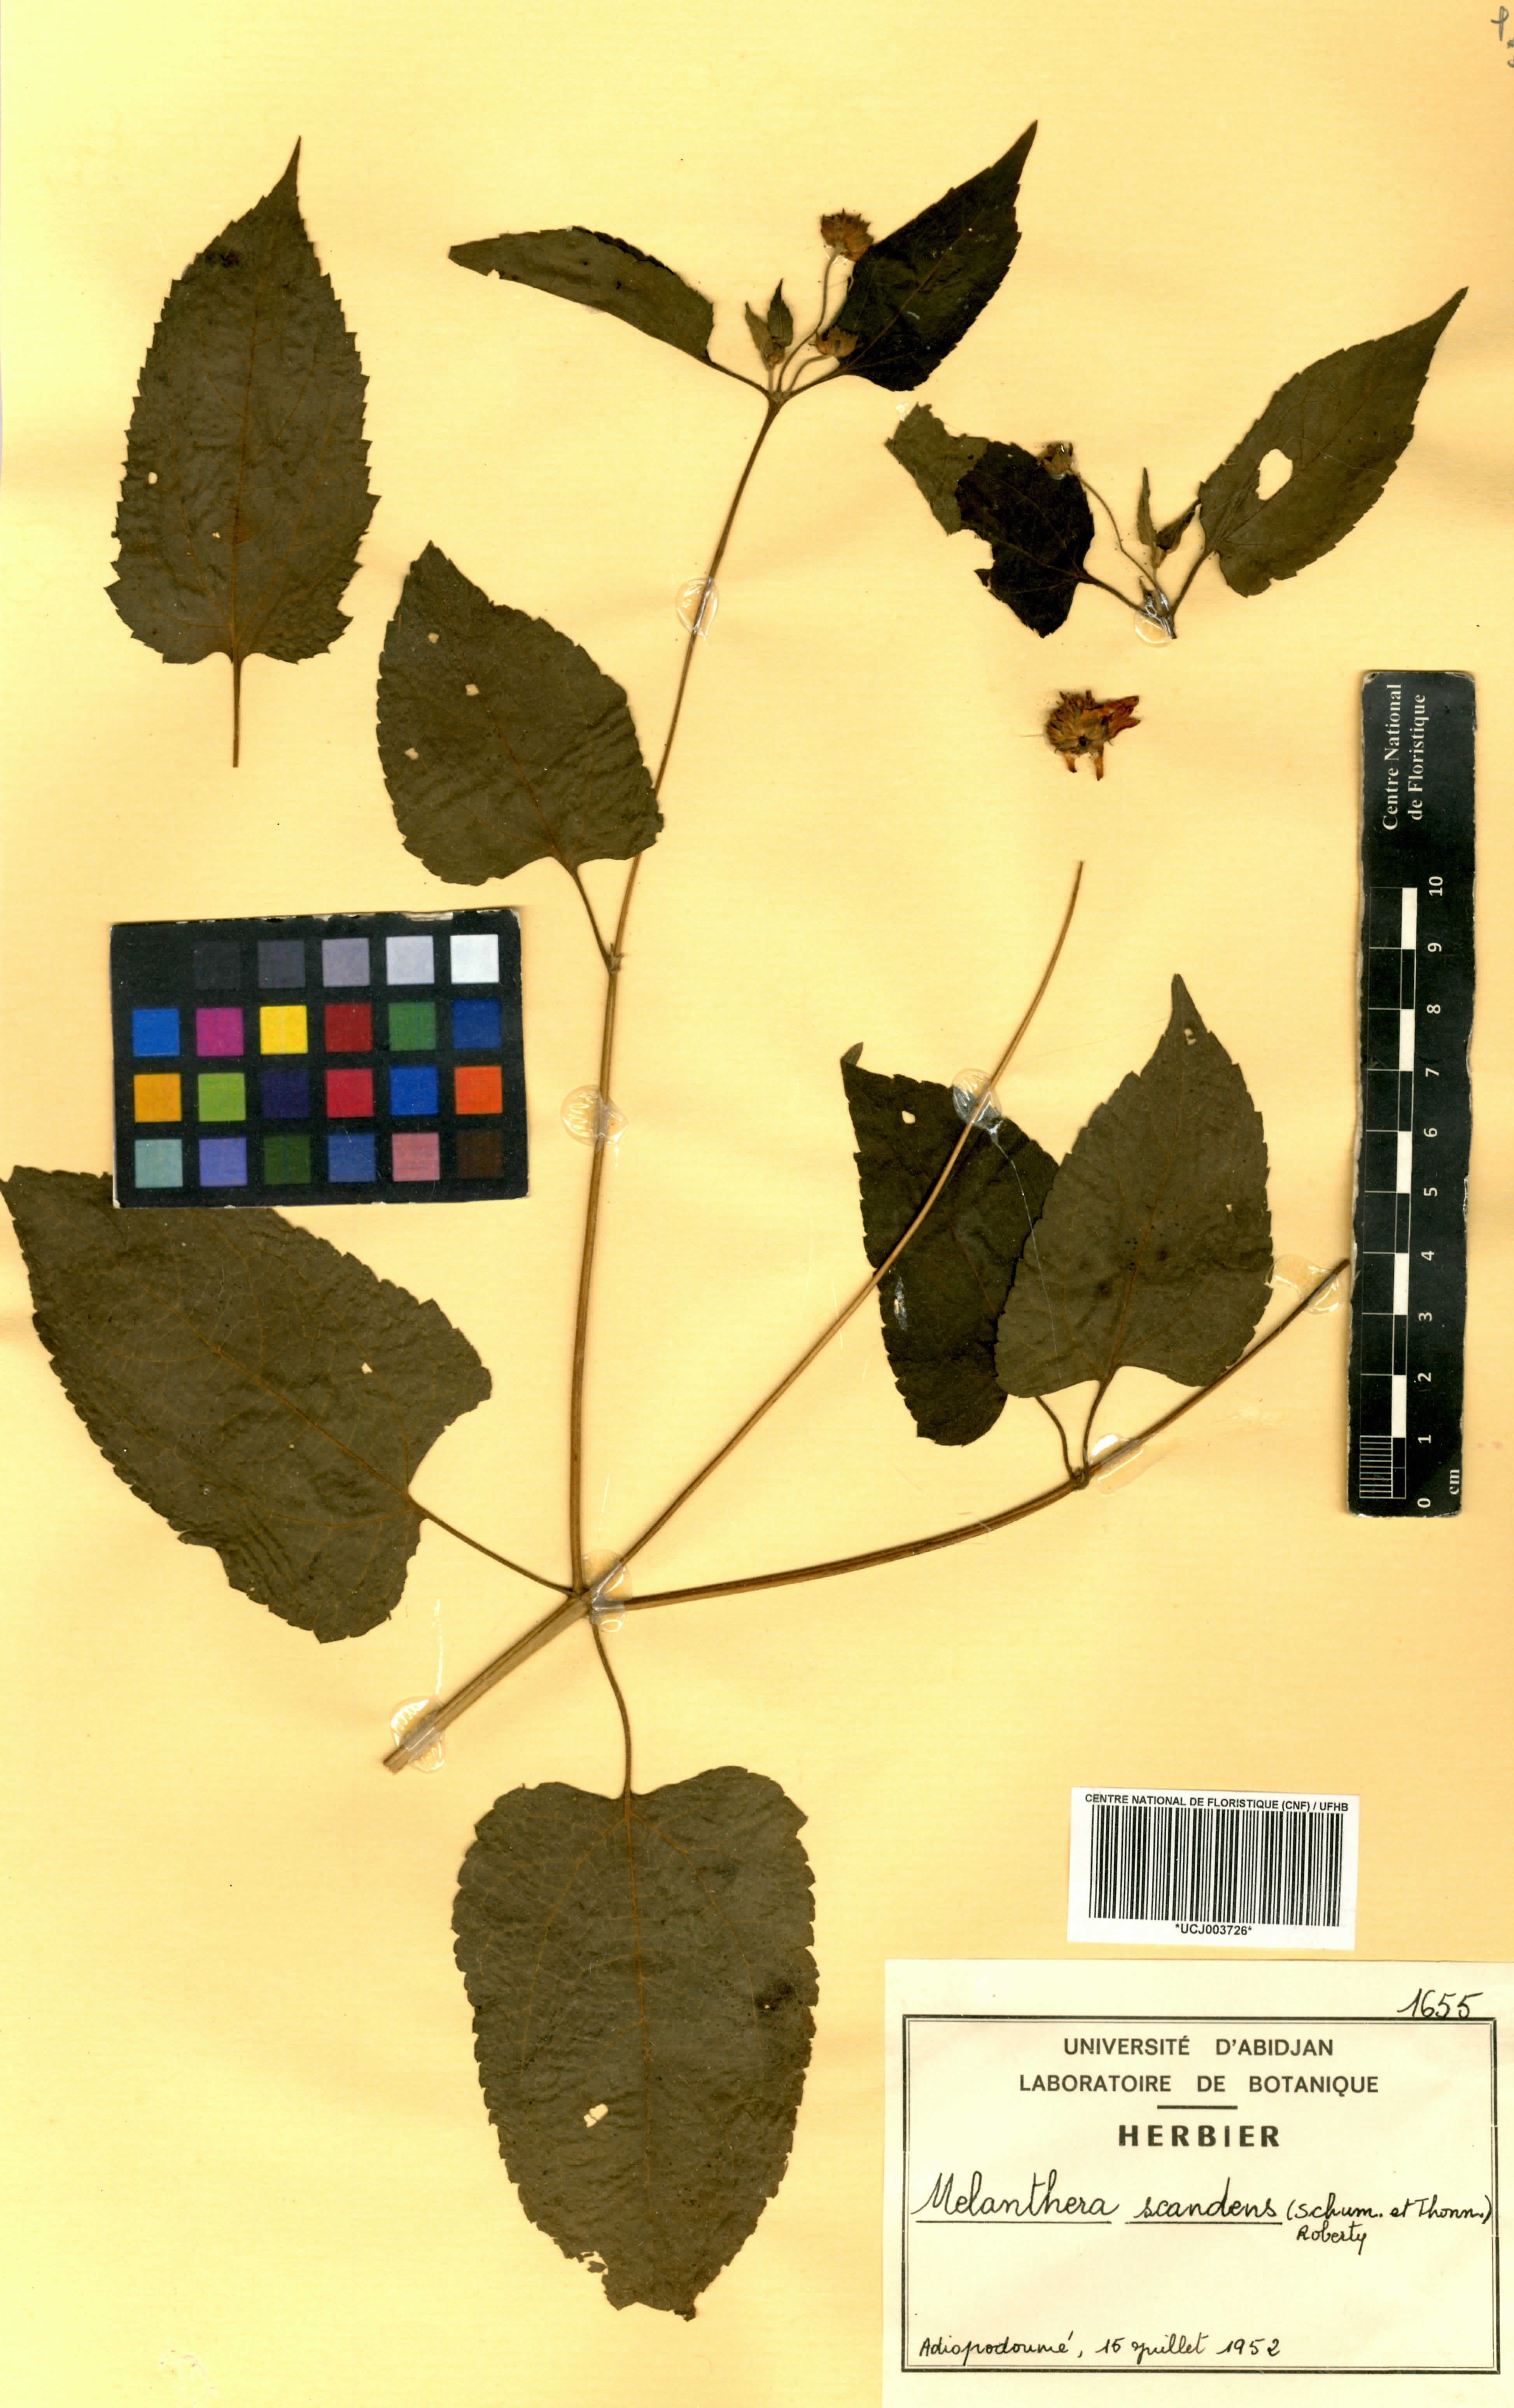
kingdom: Plantae
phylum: Tracheophyta
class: Magnoliopsida
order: Asterales
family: Asteraceae
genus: Melanthera
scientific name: Melanthera scandens
